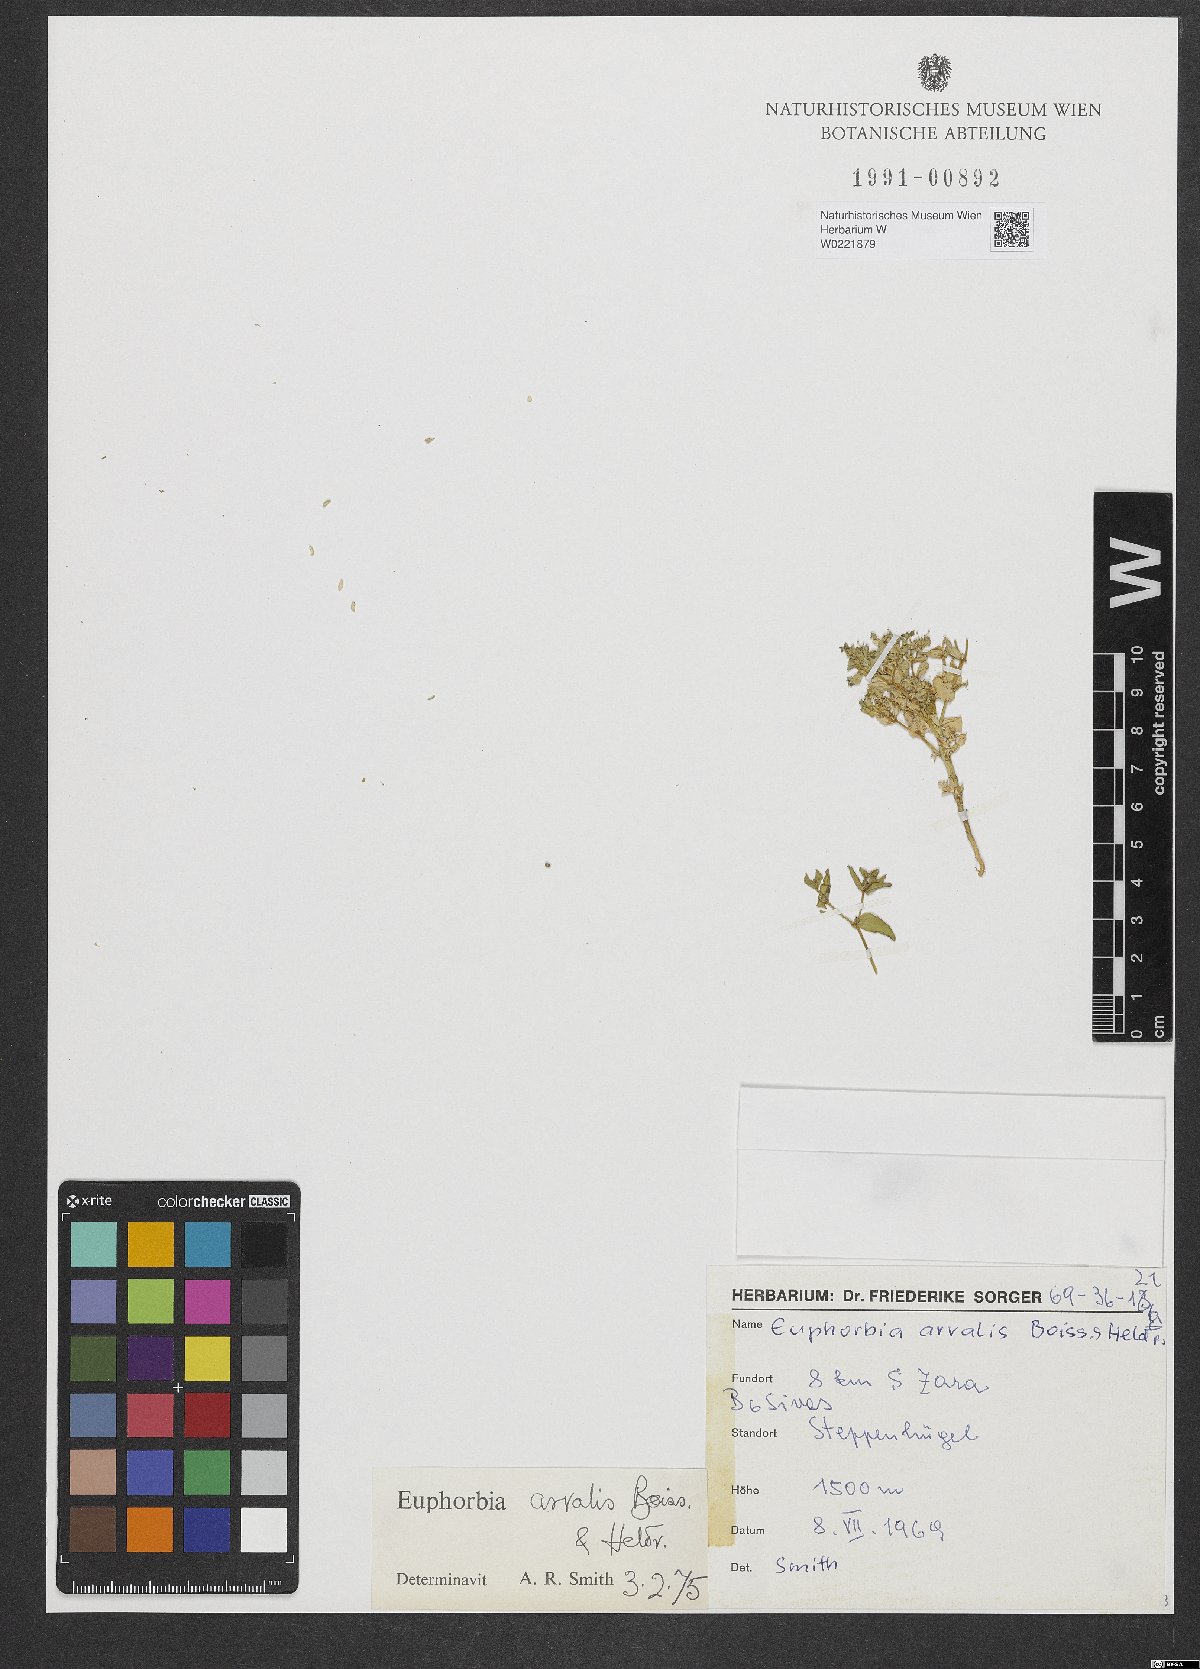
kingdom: Plantae
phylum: Tracheophyta
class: Magnoliopsida
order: Malpighiales
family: Euphorbiaceae
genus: Euphorbia
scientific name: Euphorbia arvalis
